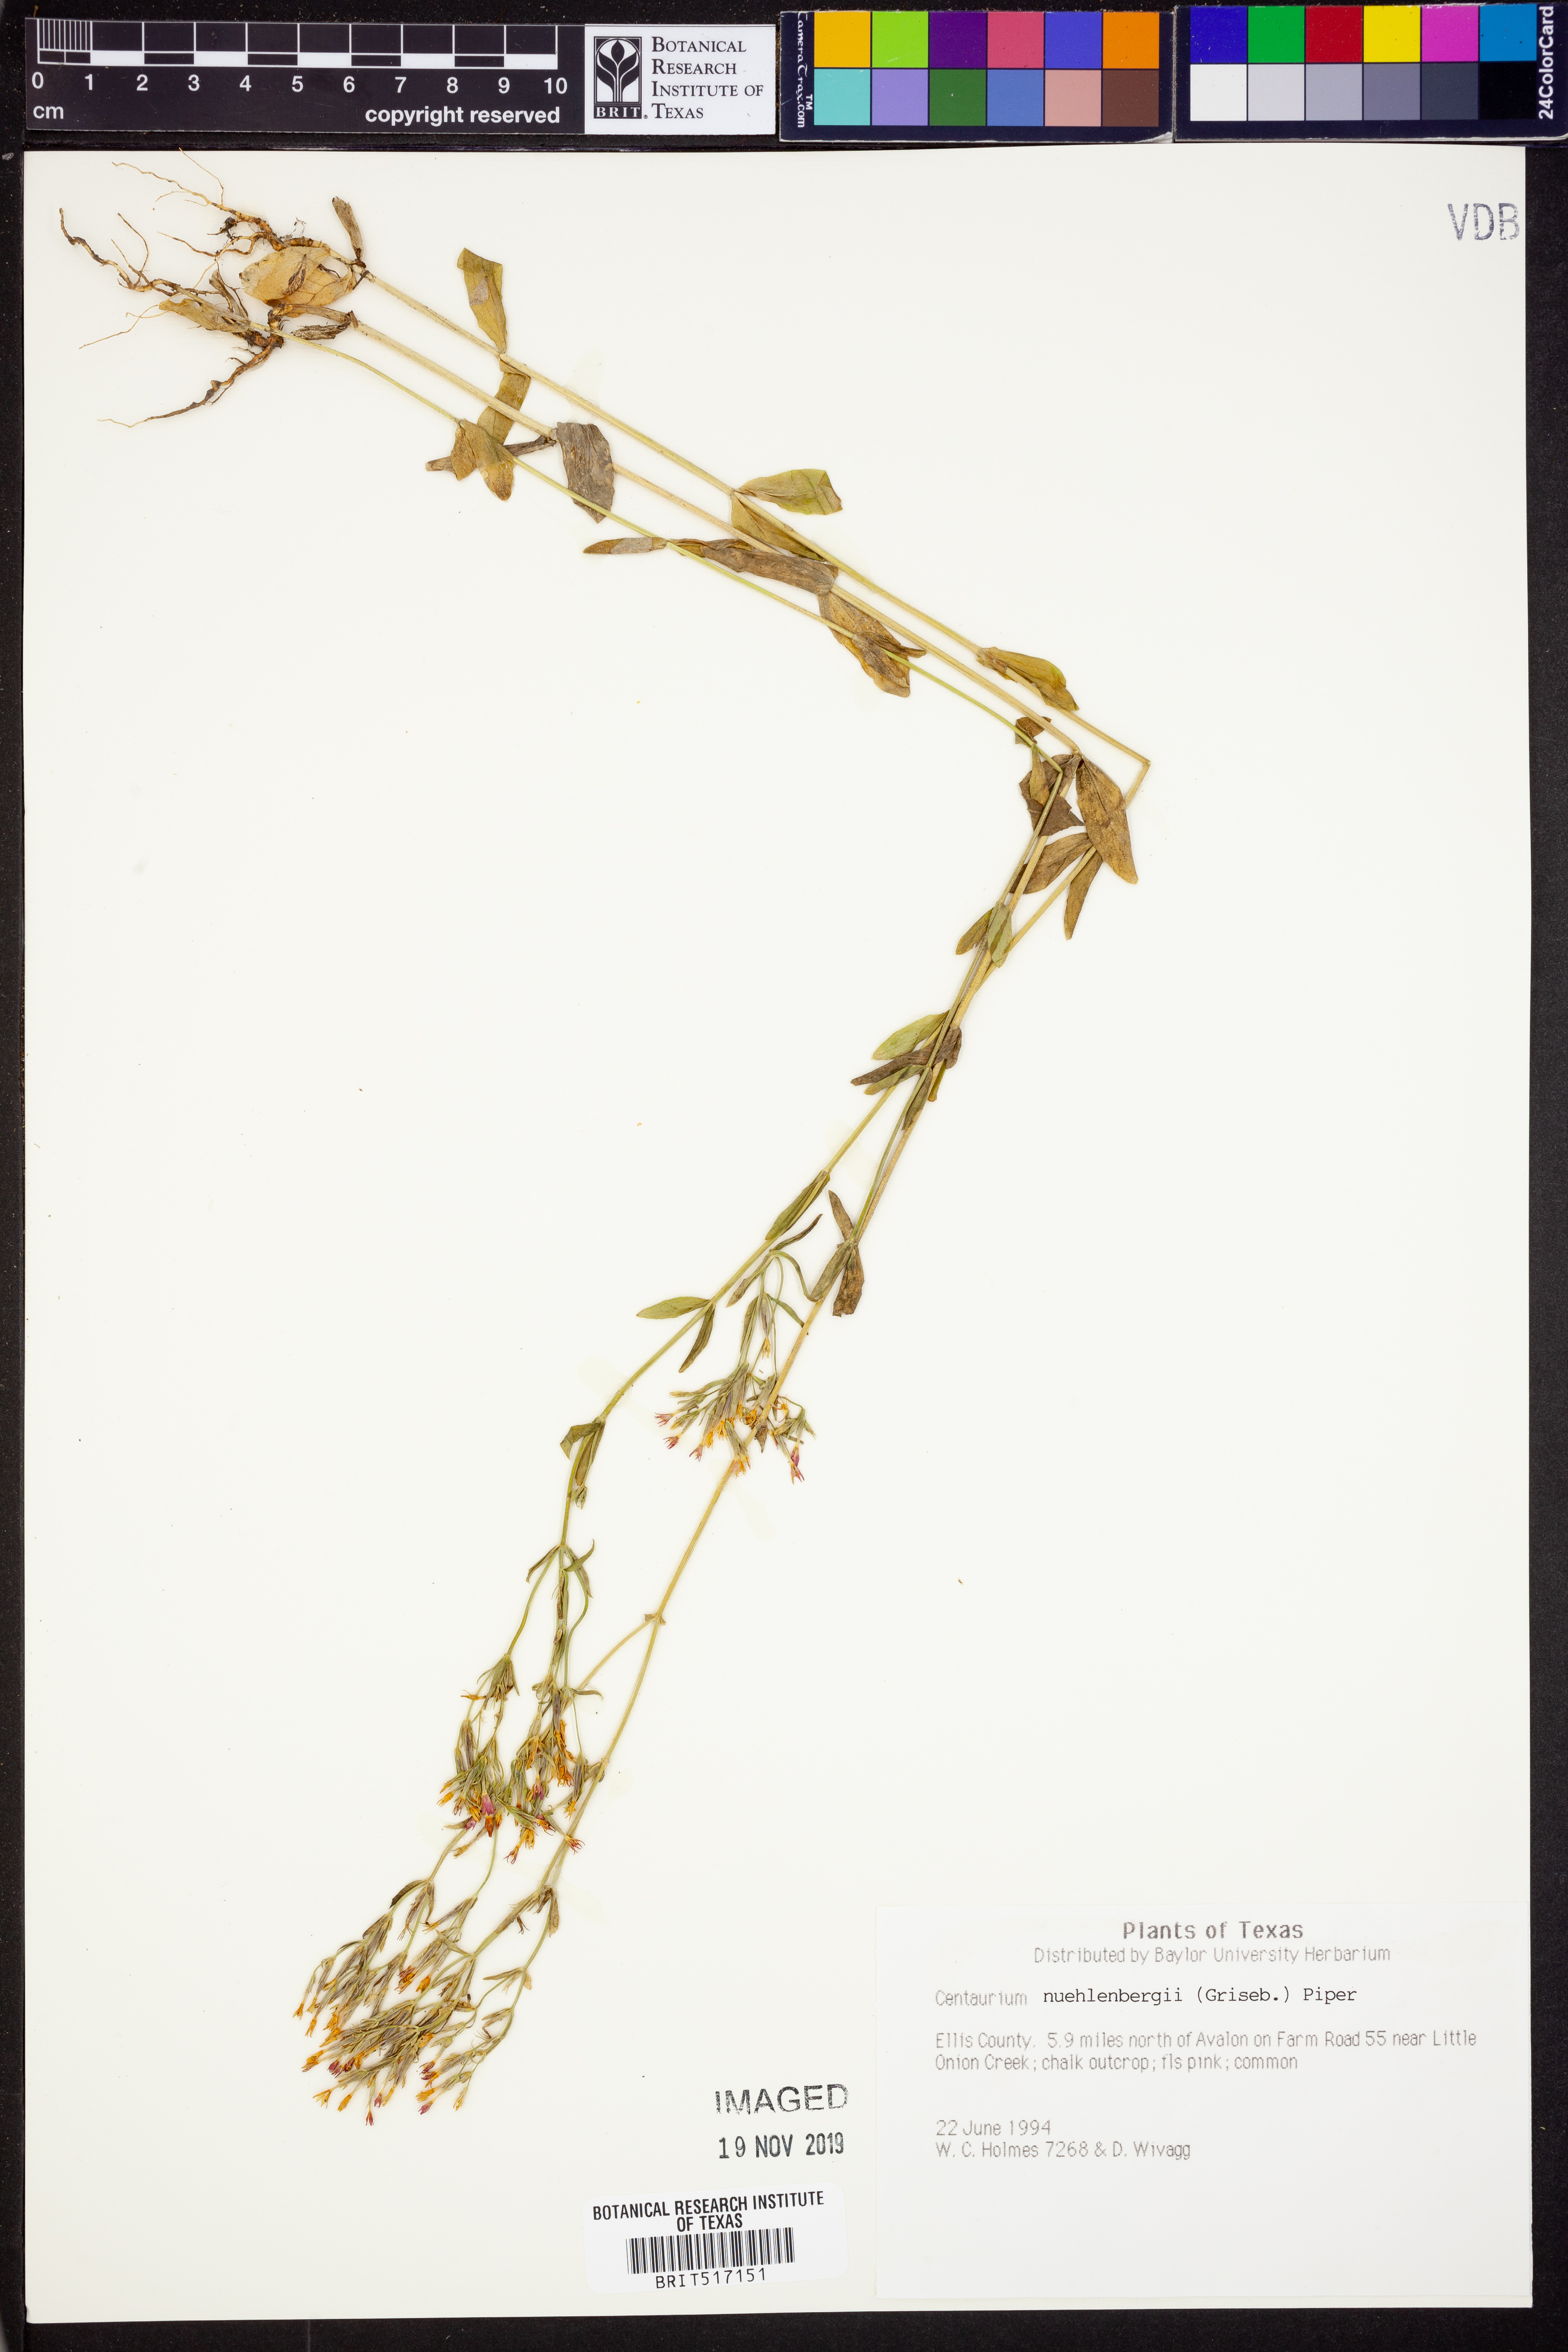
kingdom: Plantae
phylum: Tracheophyta
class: Magnoliopsida
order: Gentianales
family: Gentianaceae
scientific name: Gentianaceae
